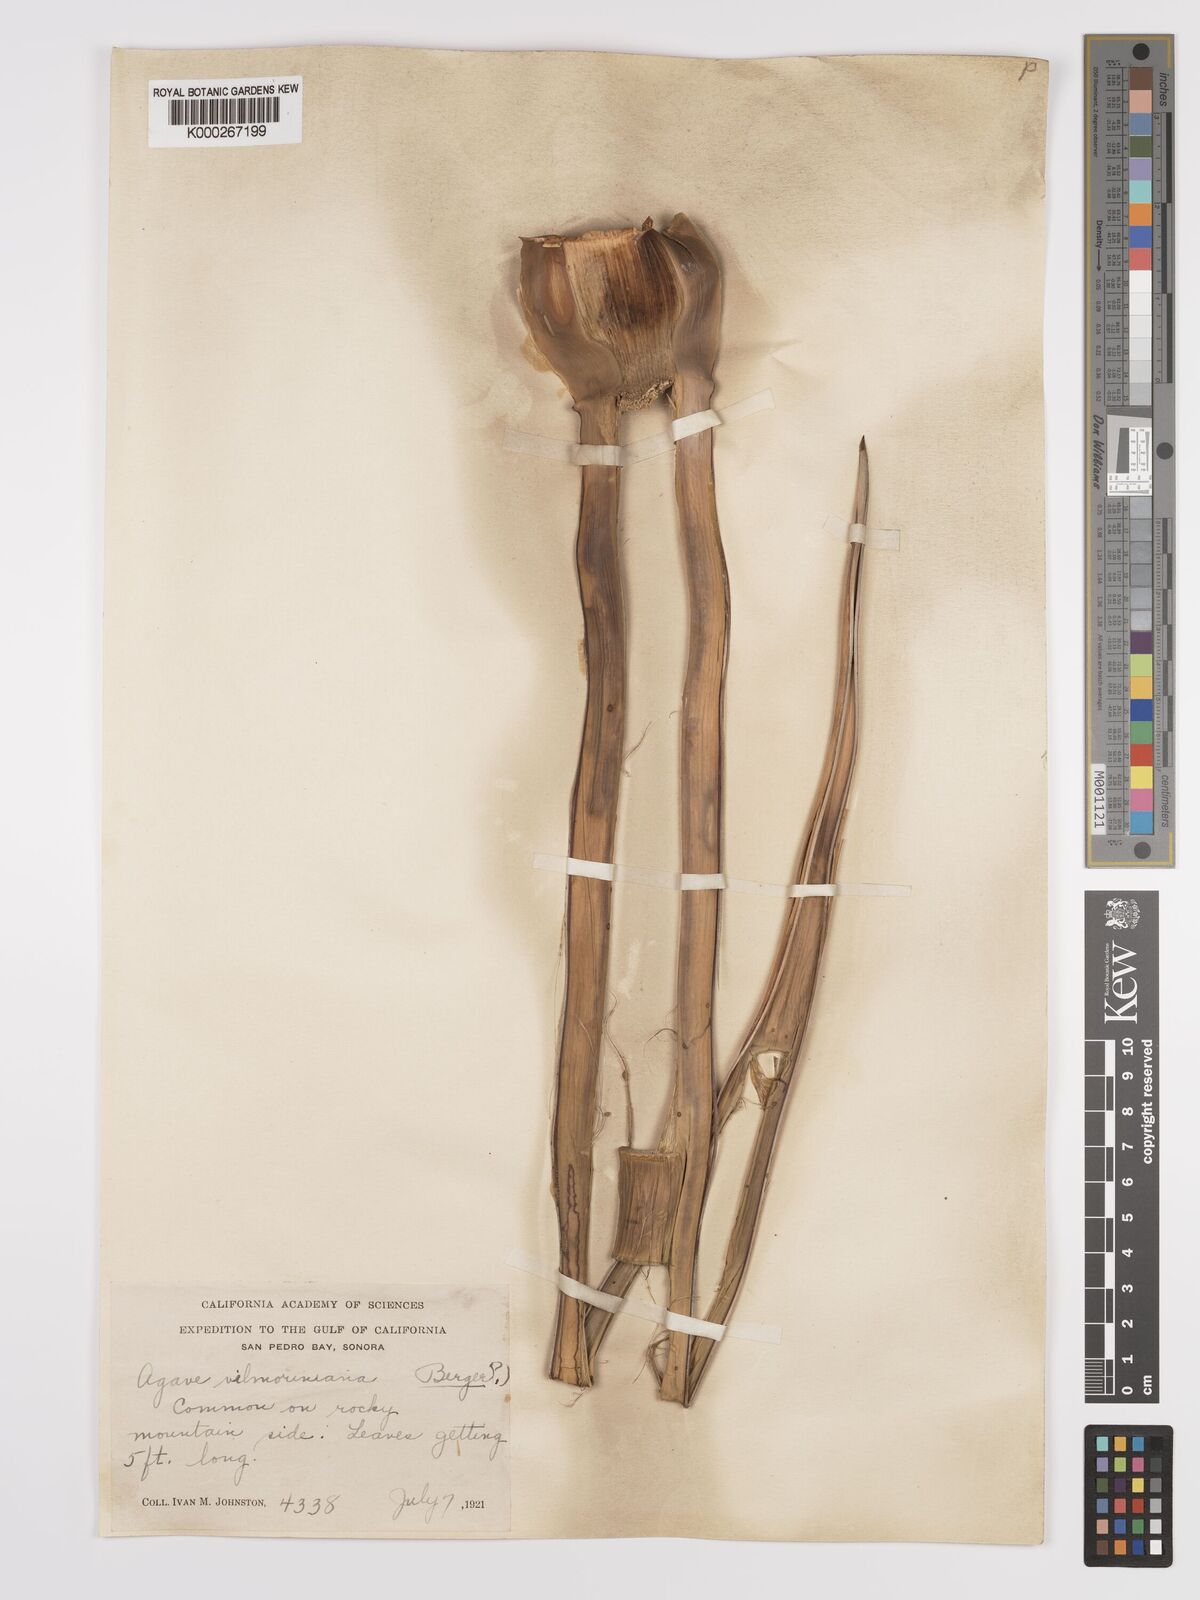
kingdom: Plantae
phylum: Tracheophyta
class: Liliopsida
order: Asparagales
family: Asparagaceae
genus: Agave
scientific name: Agave vilmoriniana
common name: Octopus plant
